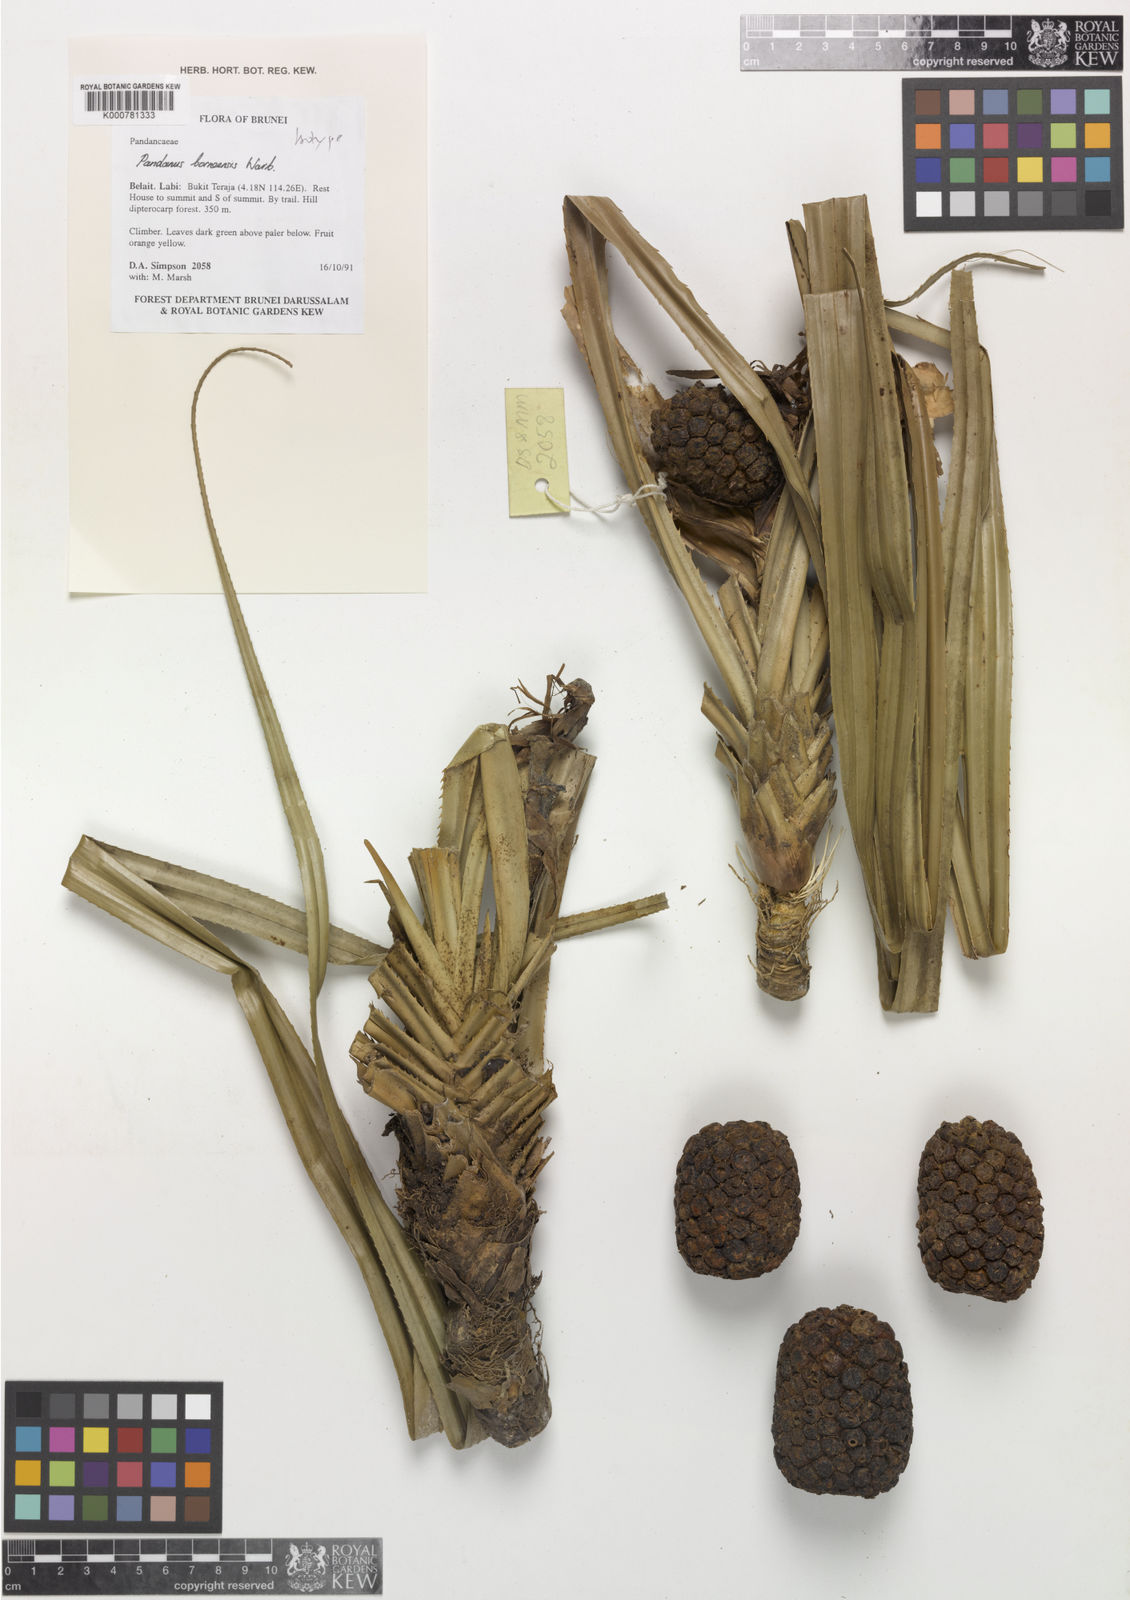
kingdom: Plantae
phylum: Tracheophyta
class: Liliopsida
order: Pandanales
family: Pandanaceae
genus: Pandanus
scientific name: Pandanus borneensis
